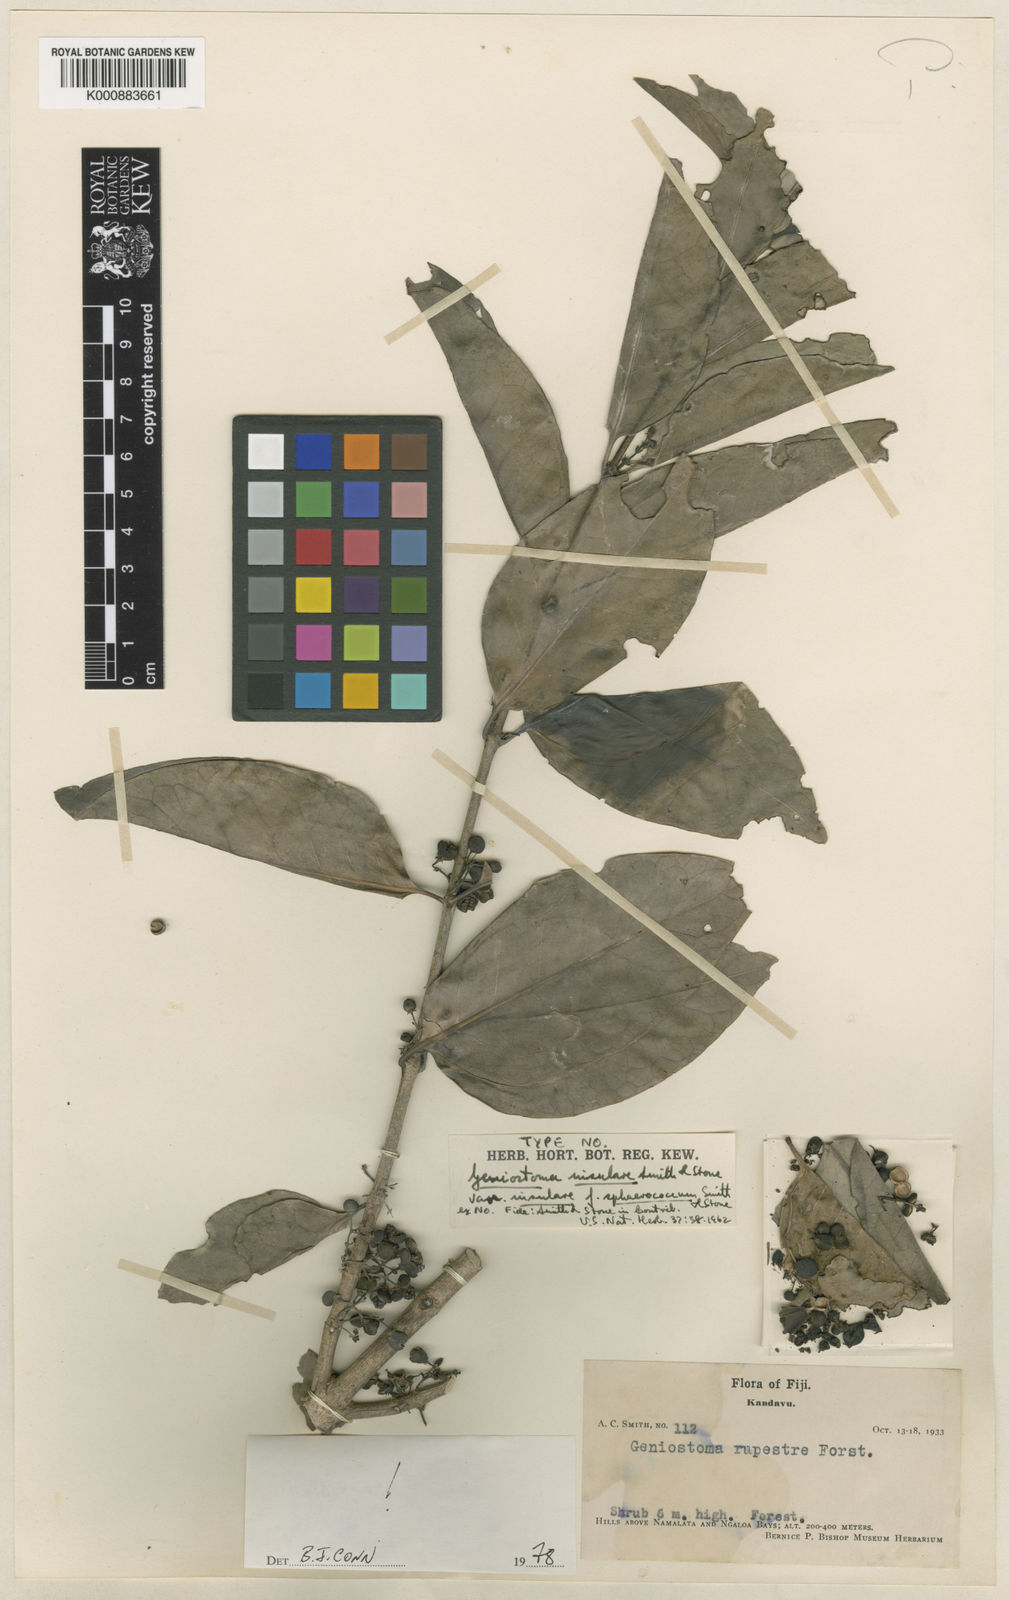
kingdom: Plantae
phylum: Tracheophyta
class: Magnoliopsida
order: Gentianales
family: Loganiaceae
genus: Geniostoma
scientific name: Geniostoma rupestre
